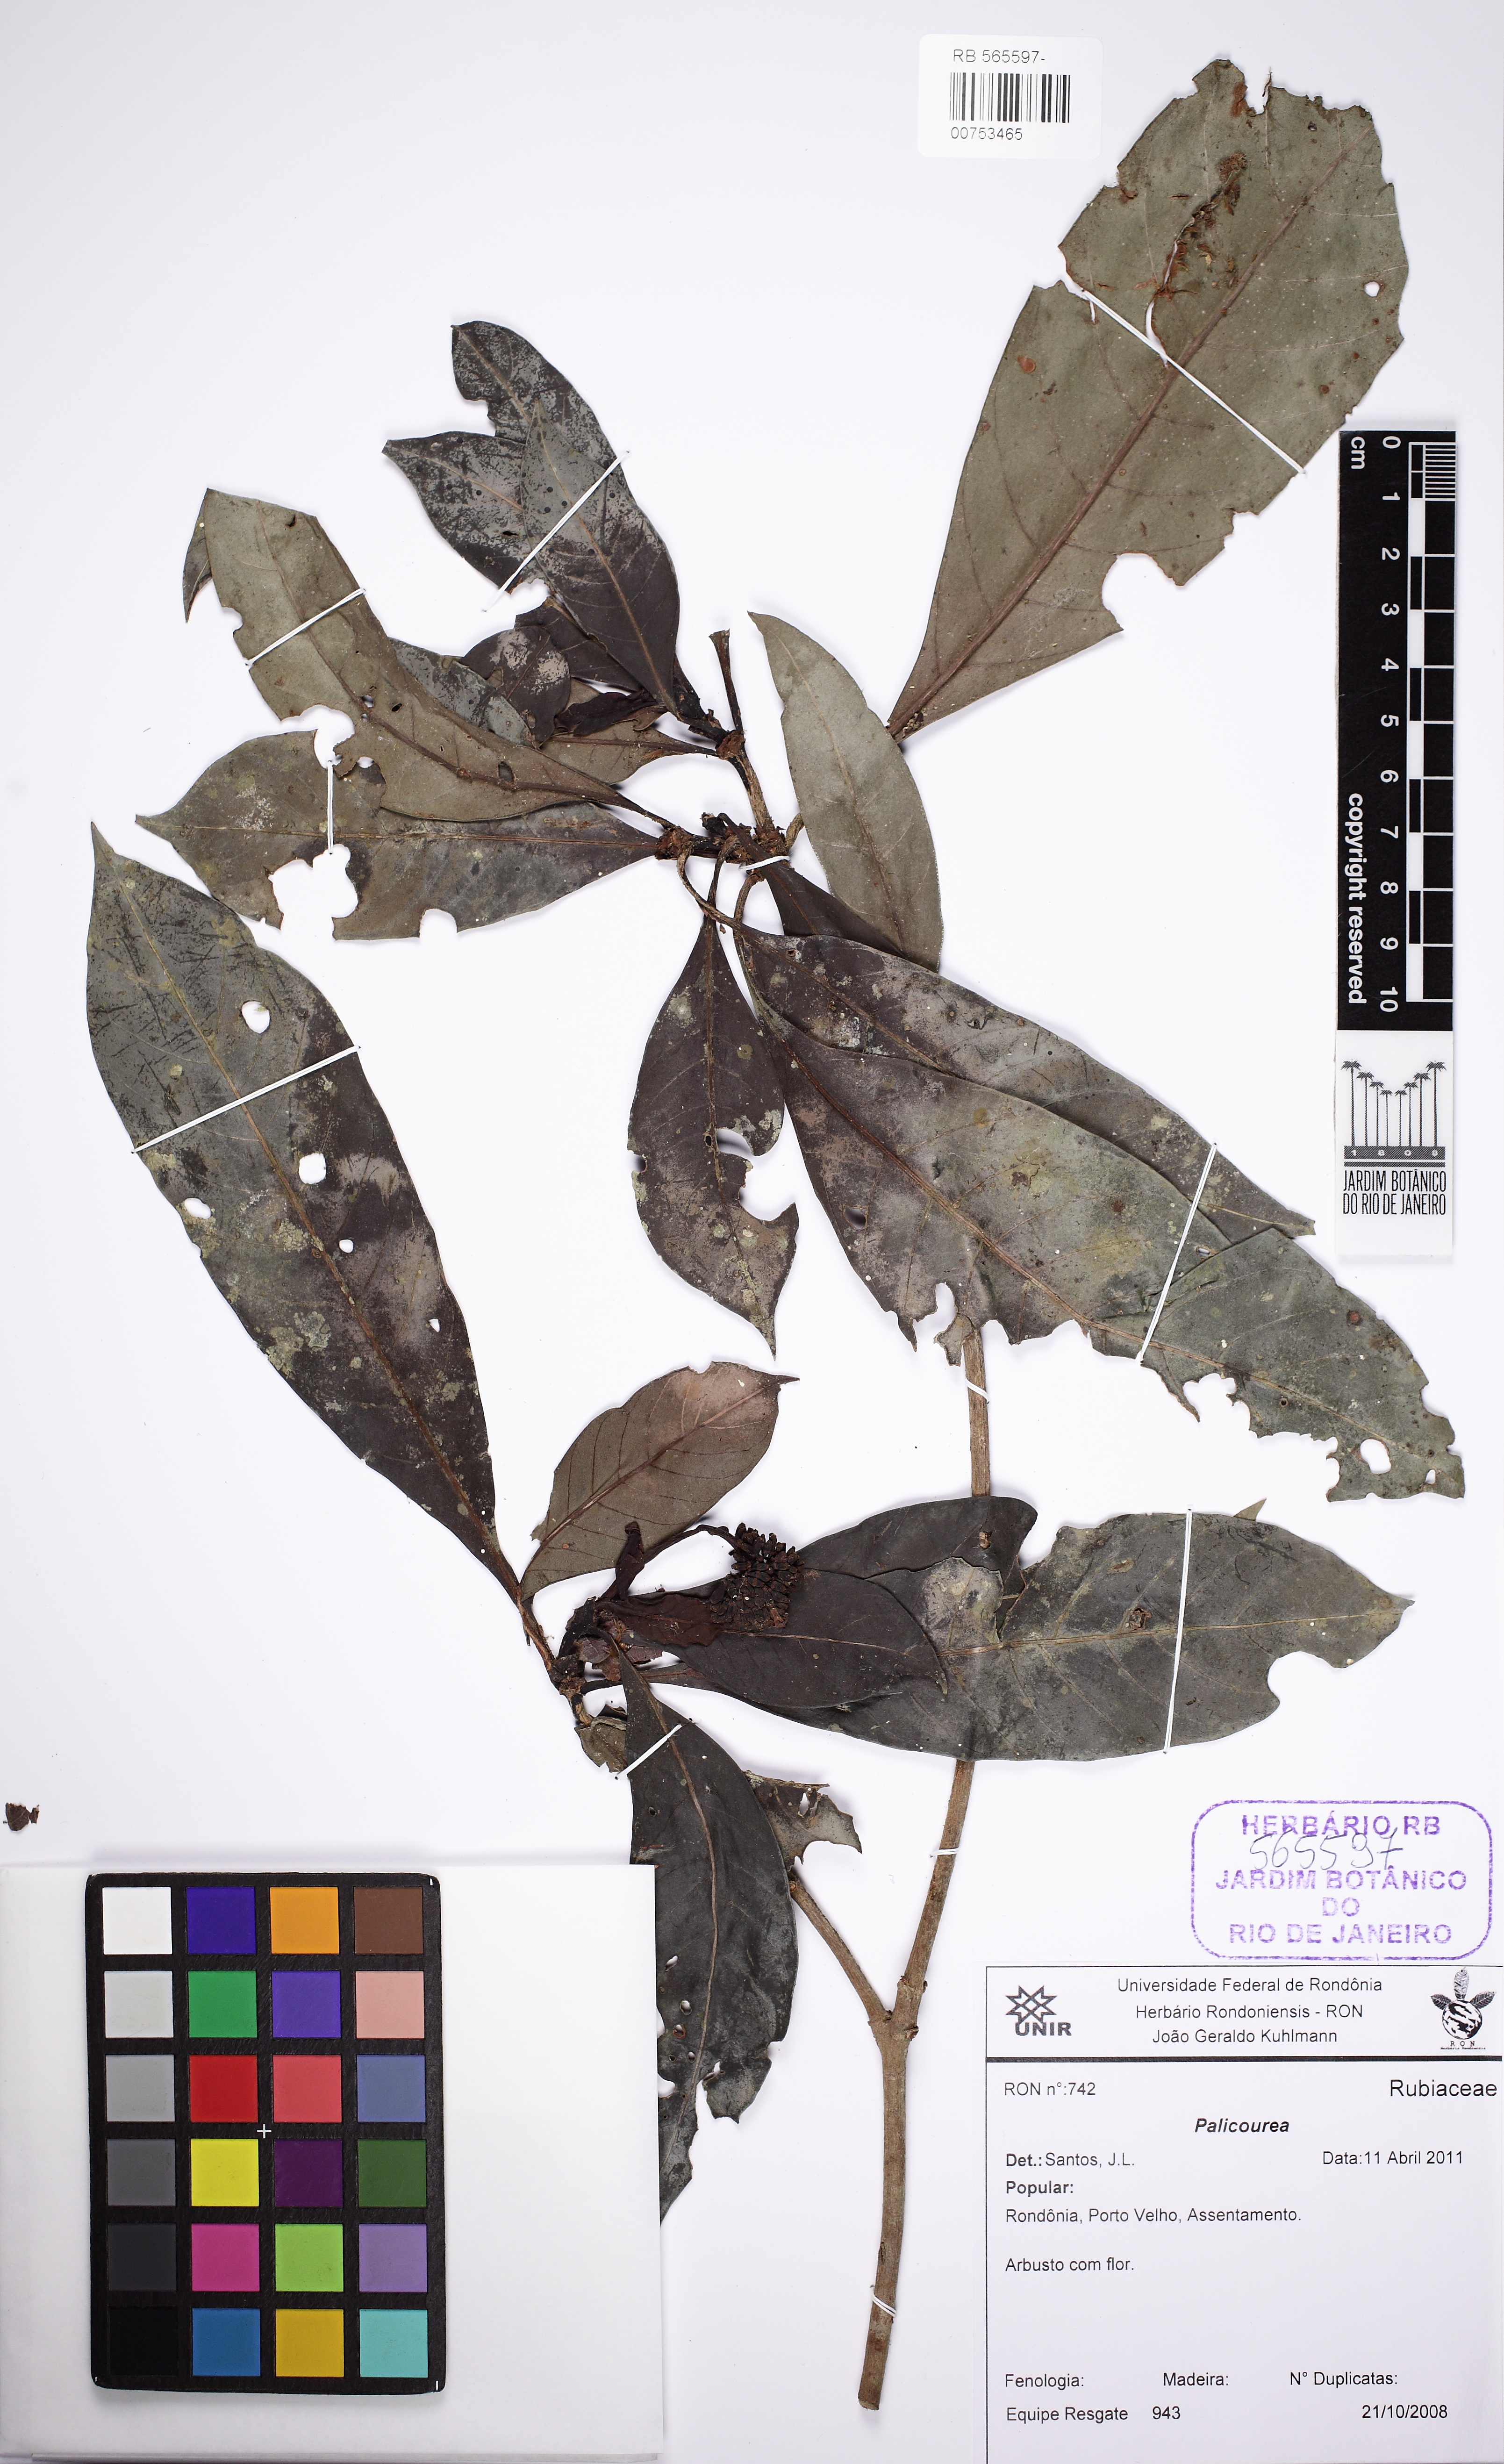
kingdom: Plantae
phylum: Tracheophyta
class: Magnoliopsida
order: Gentianales
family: Rubiaceae
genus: Psychotria
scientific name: Psychotria carthagenensis
